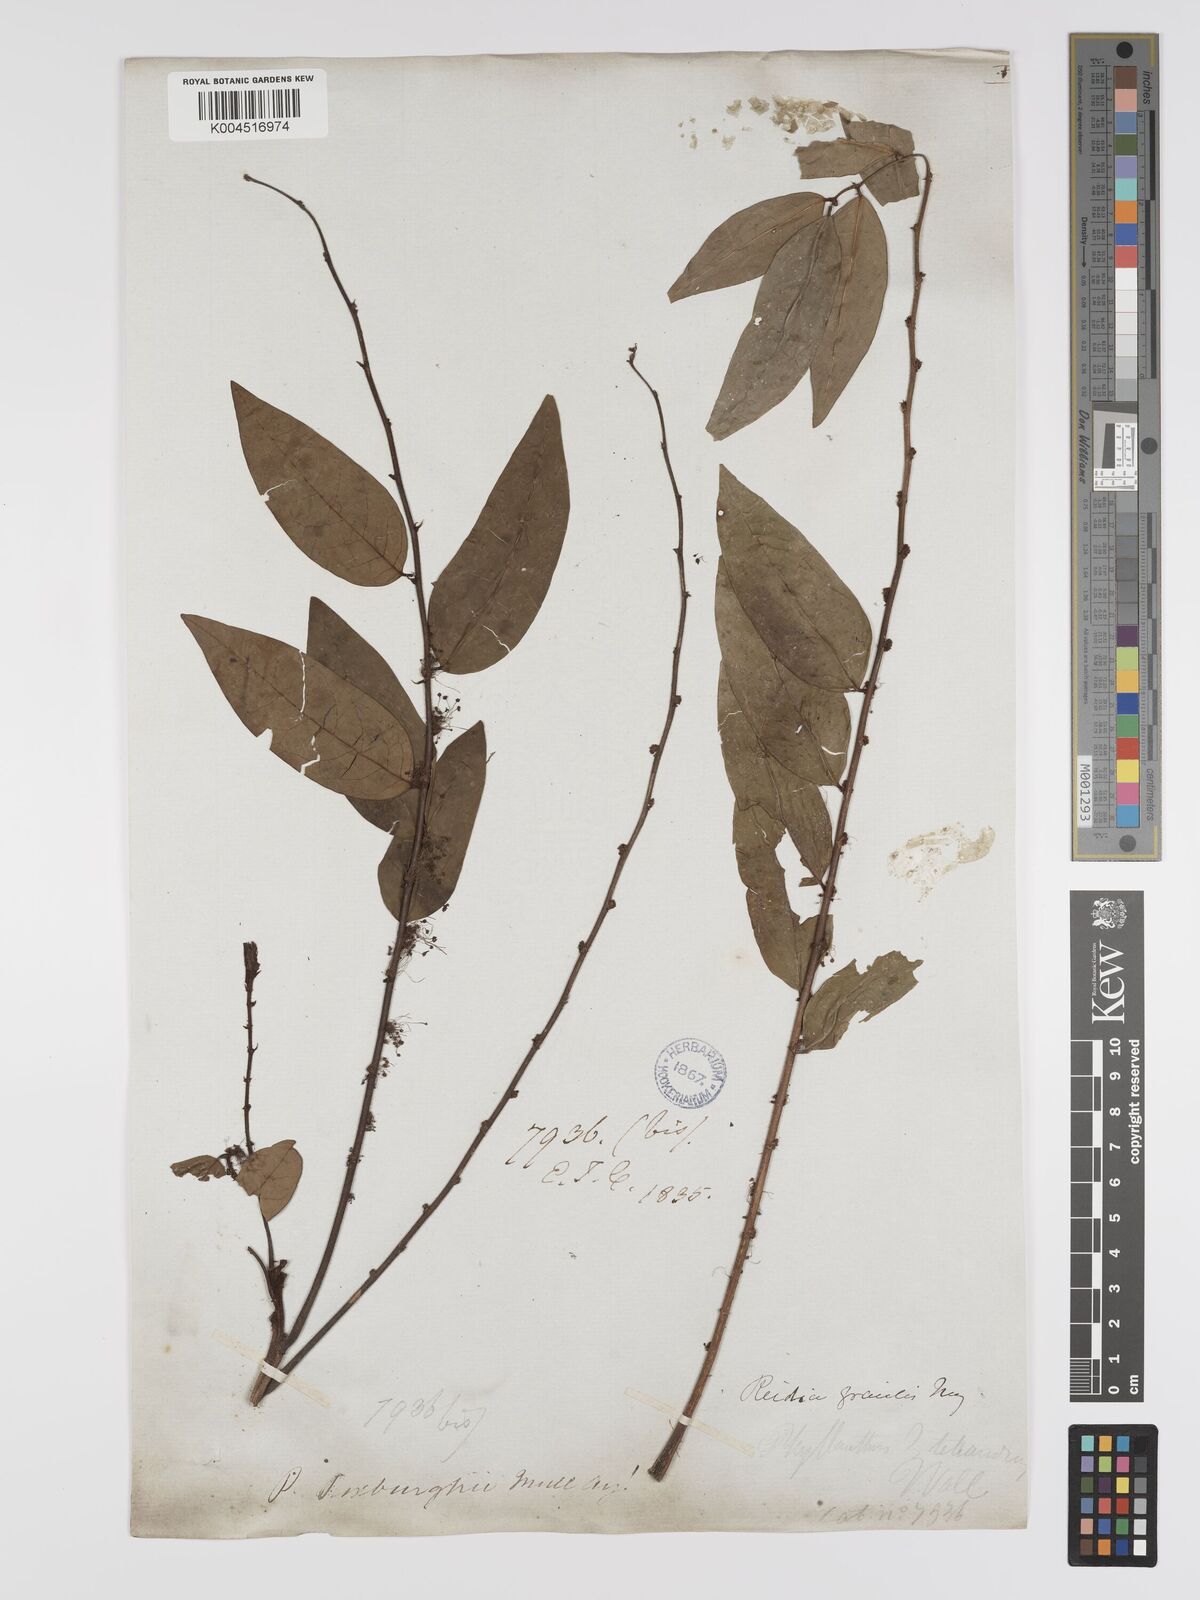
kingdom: Plantae
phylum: Tracheophyta
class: Magnoliopsida
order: Malpighiales
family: Phyllanthaceae
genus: Phyllanthus
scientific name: Phyllanthus tetrandrus
